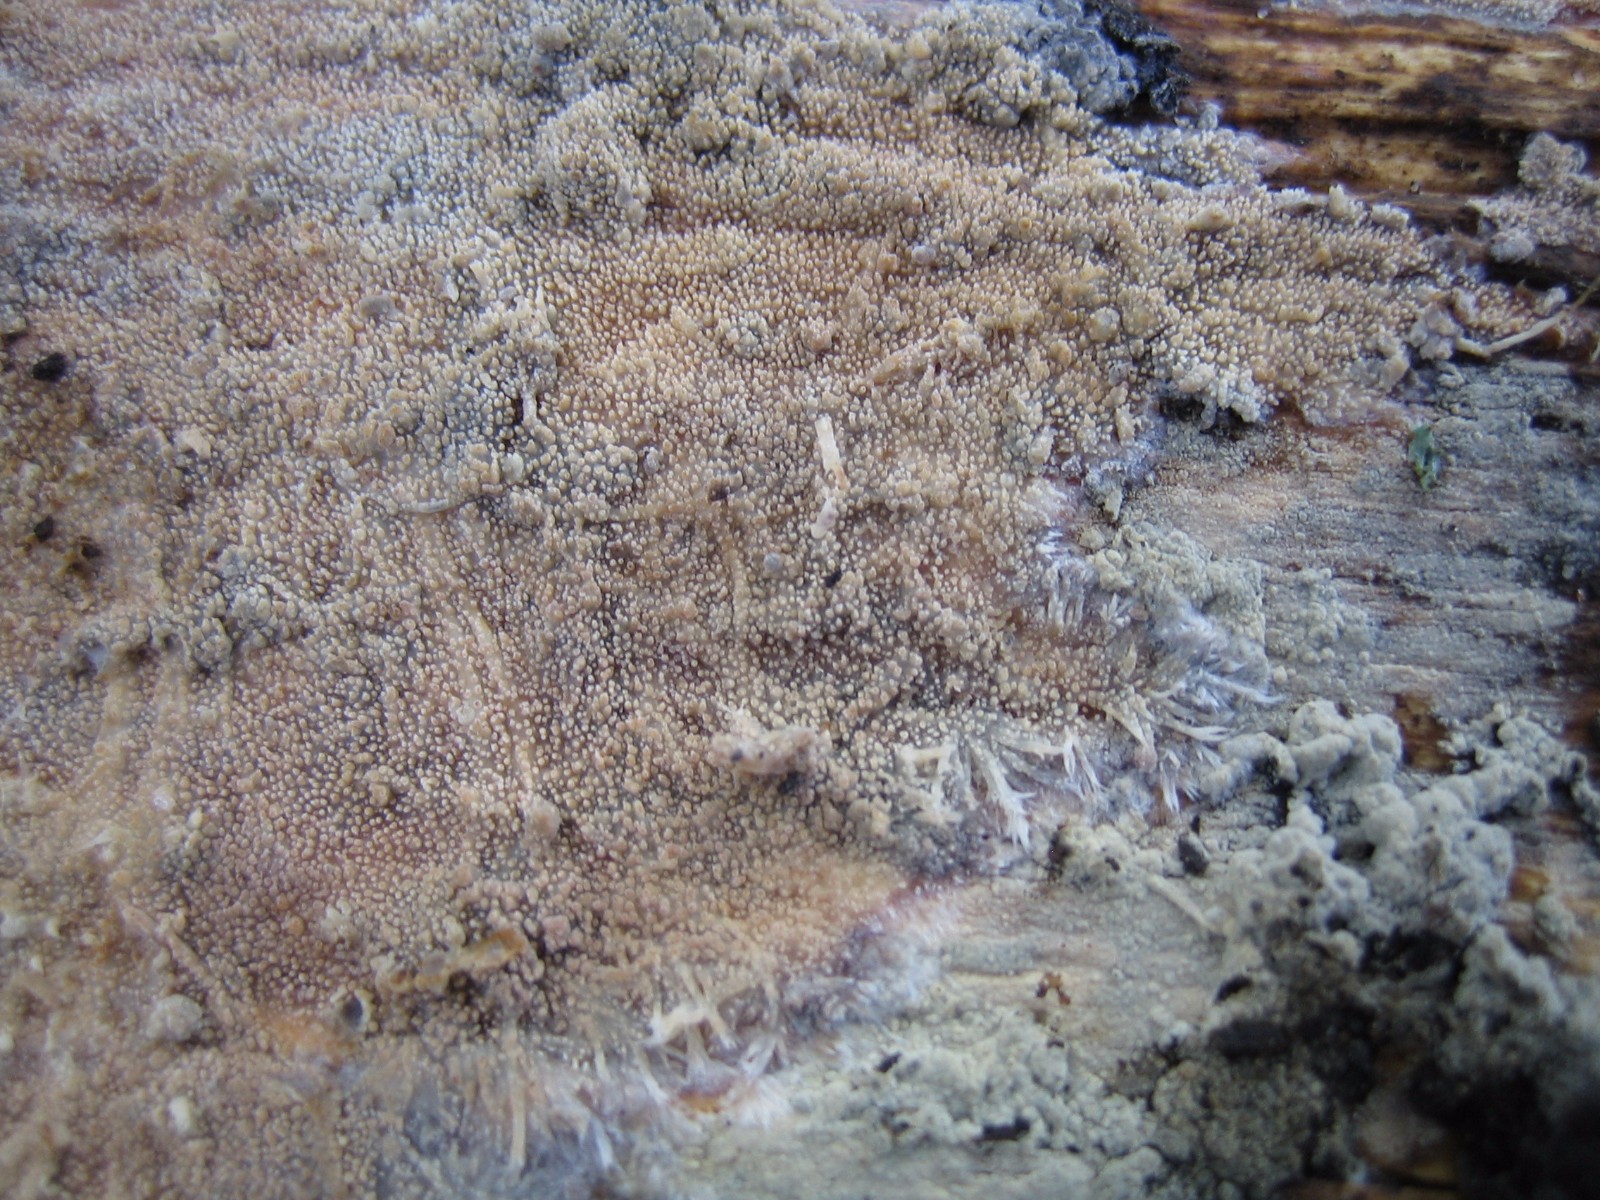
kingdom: Fungi
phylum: Basidiomycota
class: Agaricomycetes
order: Corticiales
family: Corticiaceae
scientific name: Corticiaceae
